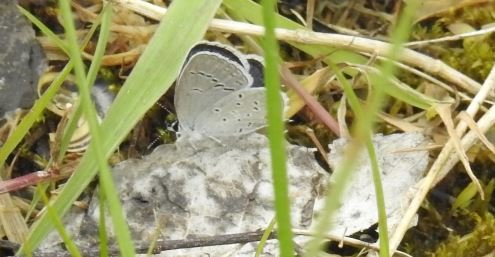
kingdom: Animalia
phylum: Arthropoda
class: Insecta
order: Lepidoptera
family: Lycaenidae
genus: Elkalyce
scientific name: Elkalyce comyntas
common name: Eastern Tailed-Blue
